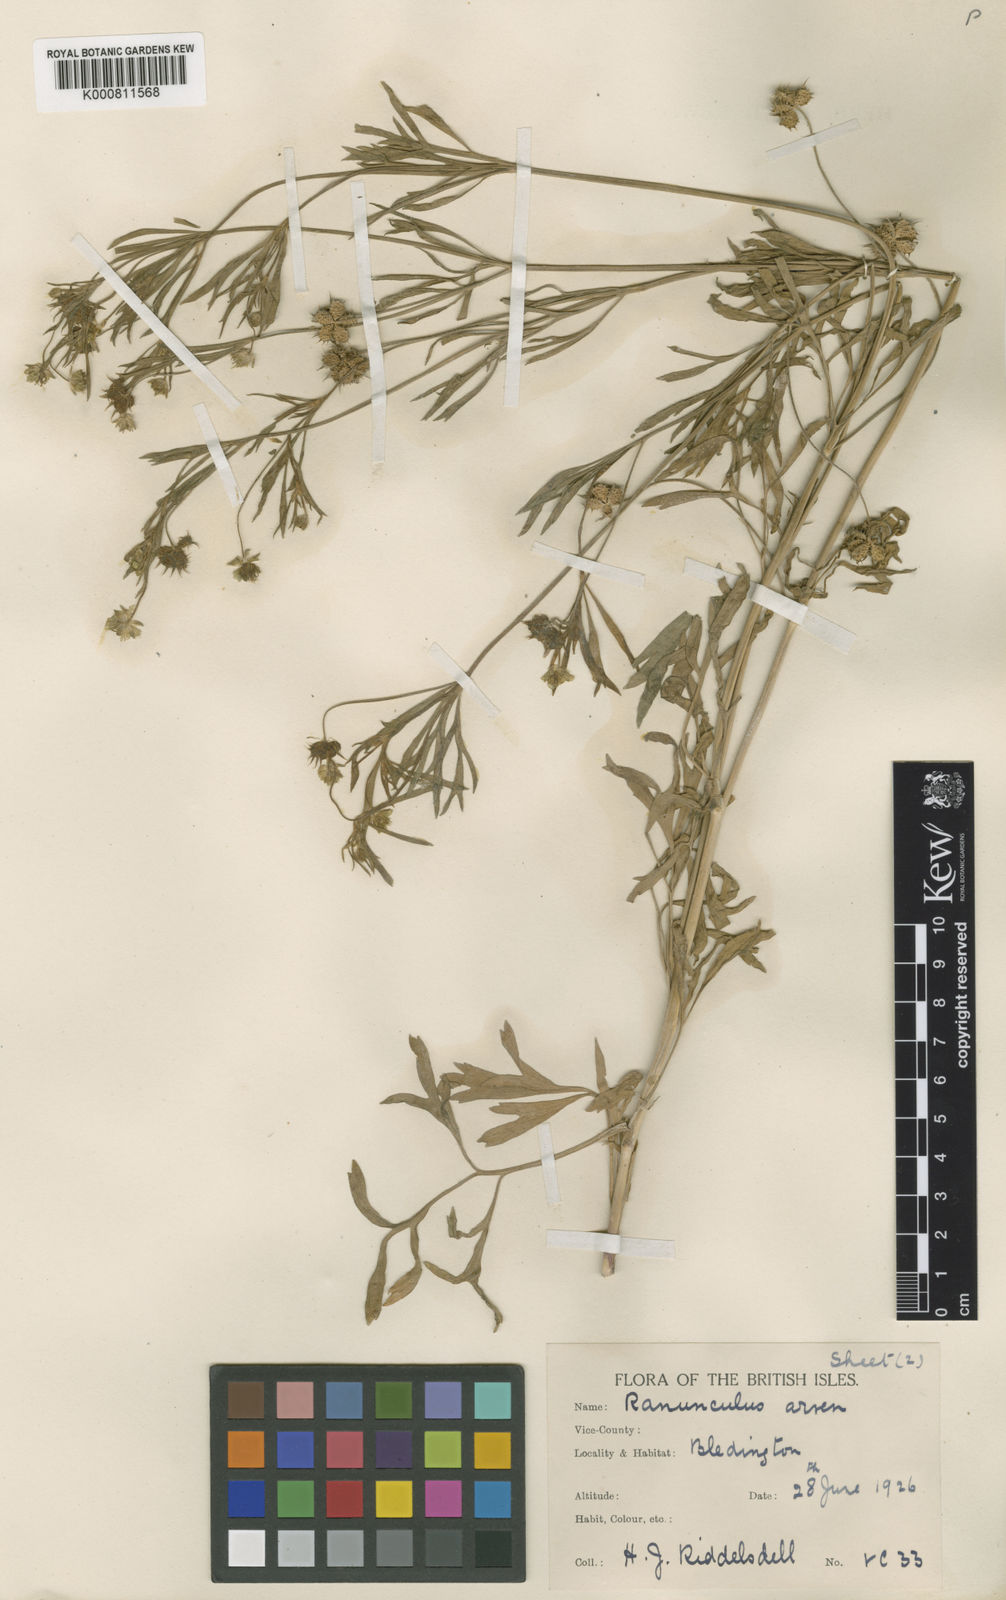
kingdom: Plantae
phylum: Tracheophyta
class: Magnoliopsida
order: Ranunculales
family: Ranunculaceae
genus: Ranunculus
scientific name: Ranunculus arvensis
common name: Corn buttercup
